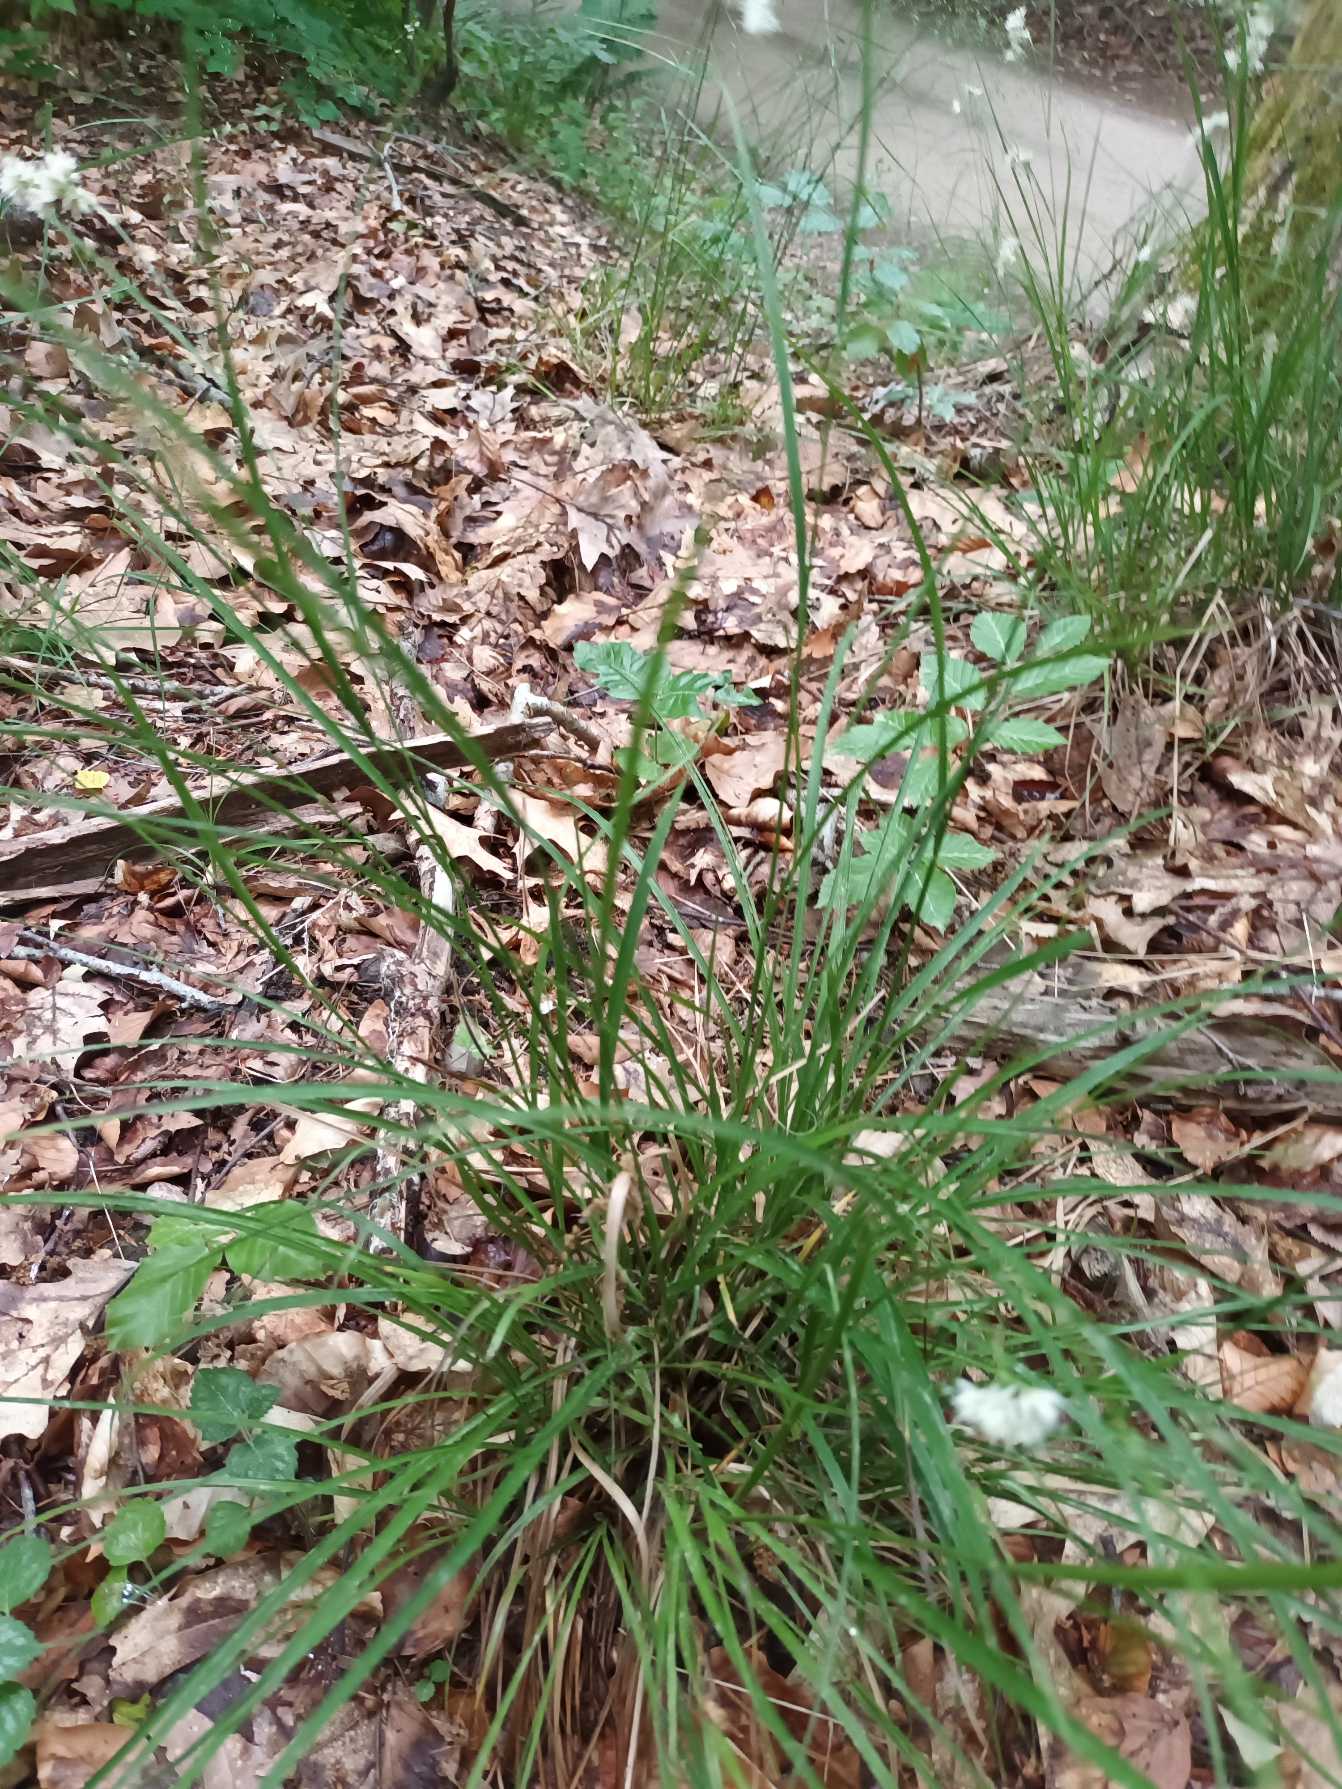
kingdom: Plantae
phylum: Tracheophyta
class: Liliopsida
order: Poales
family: Juncaceae
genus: Luzula
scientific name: Luzula nivea
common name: Snehvid frytle
